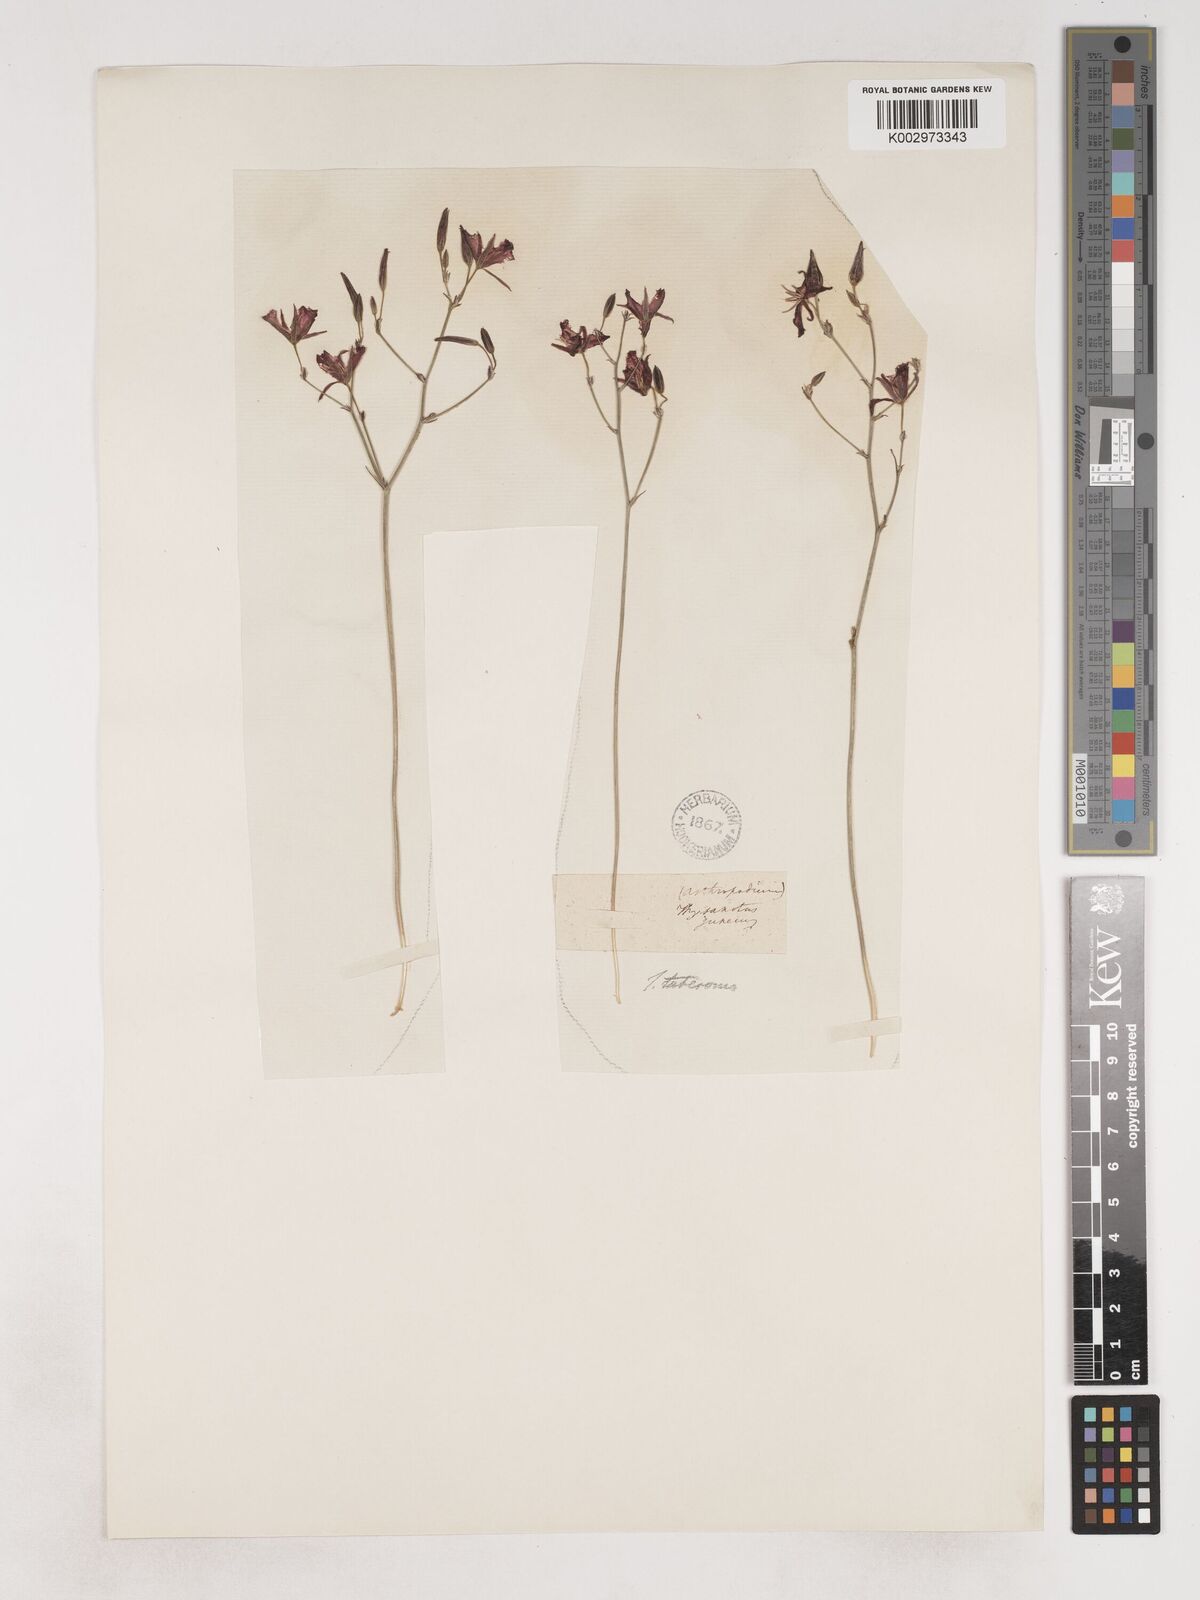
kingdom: Plantae
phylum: Tracheophyta
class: Liliopsida
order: Asparagales
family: Asparagaceae
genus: Thysanotus
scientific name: Thysanotus tuberosus
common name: Common fringed-lily
